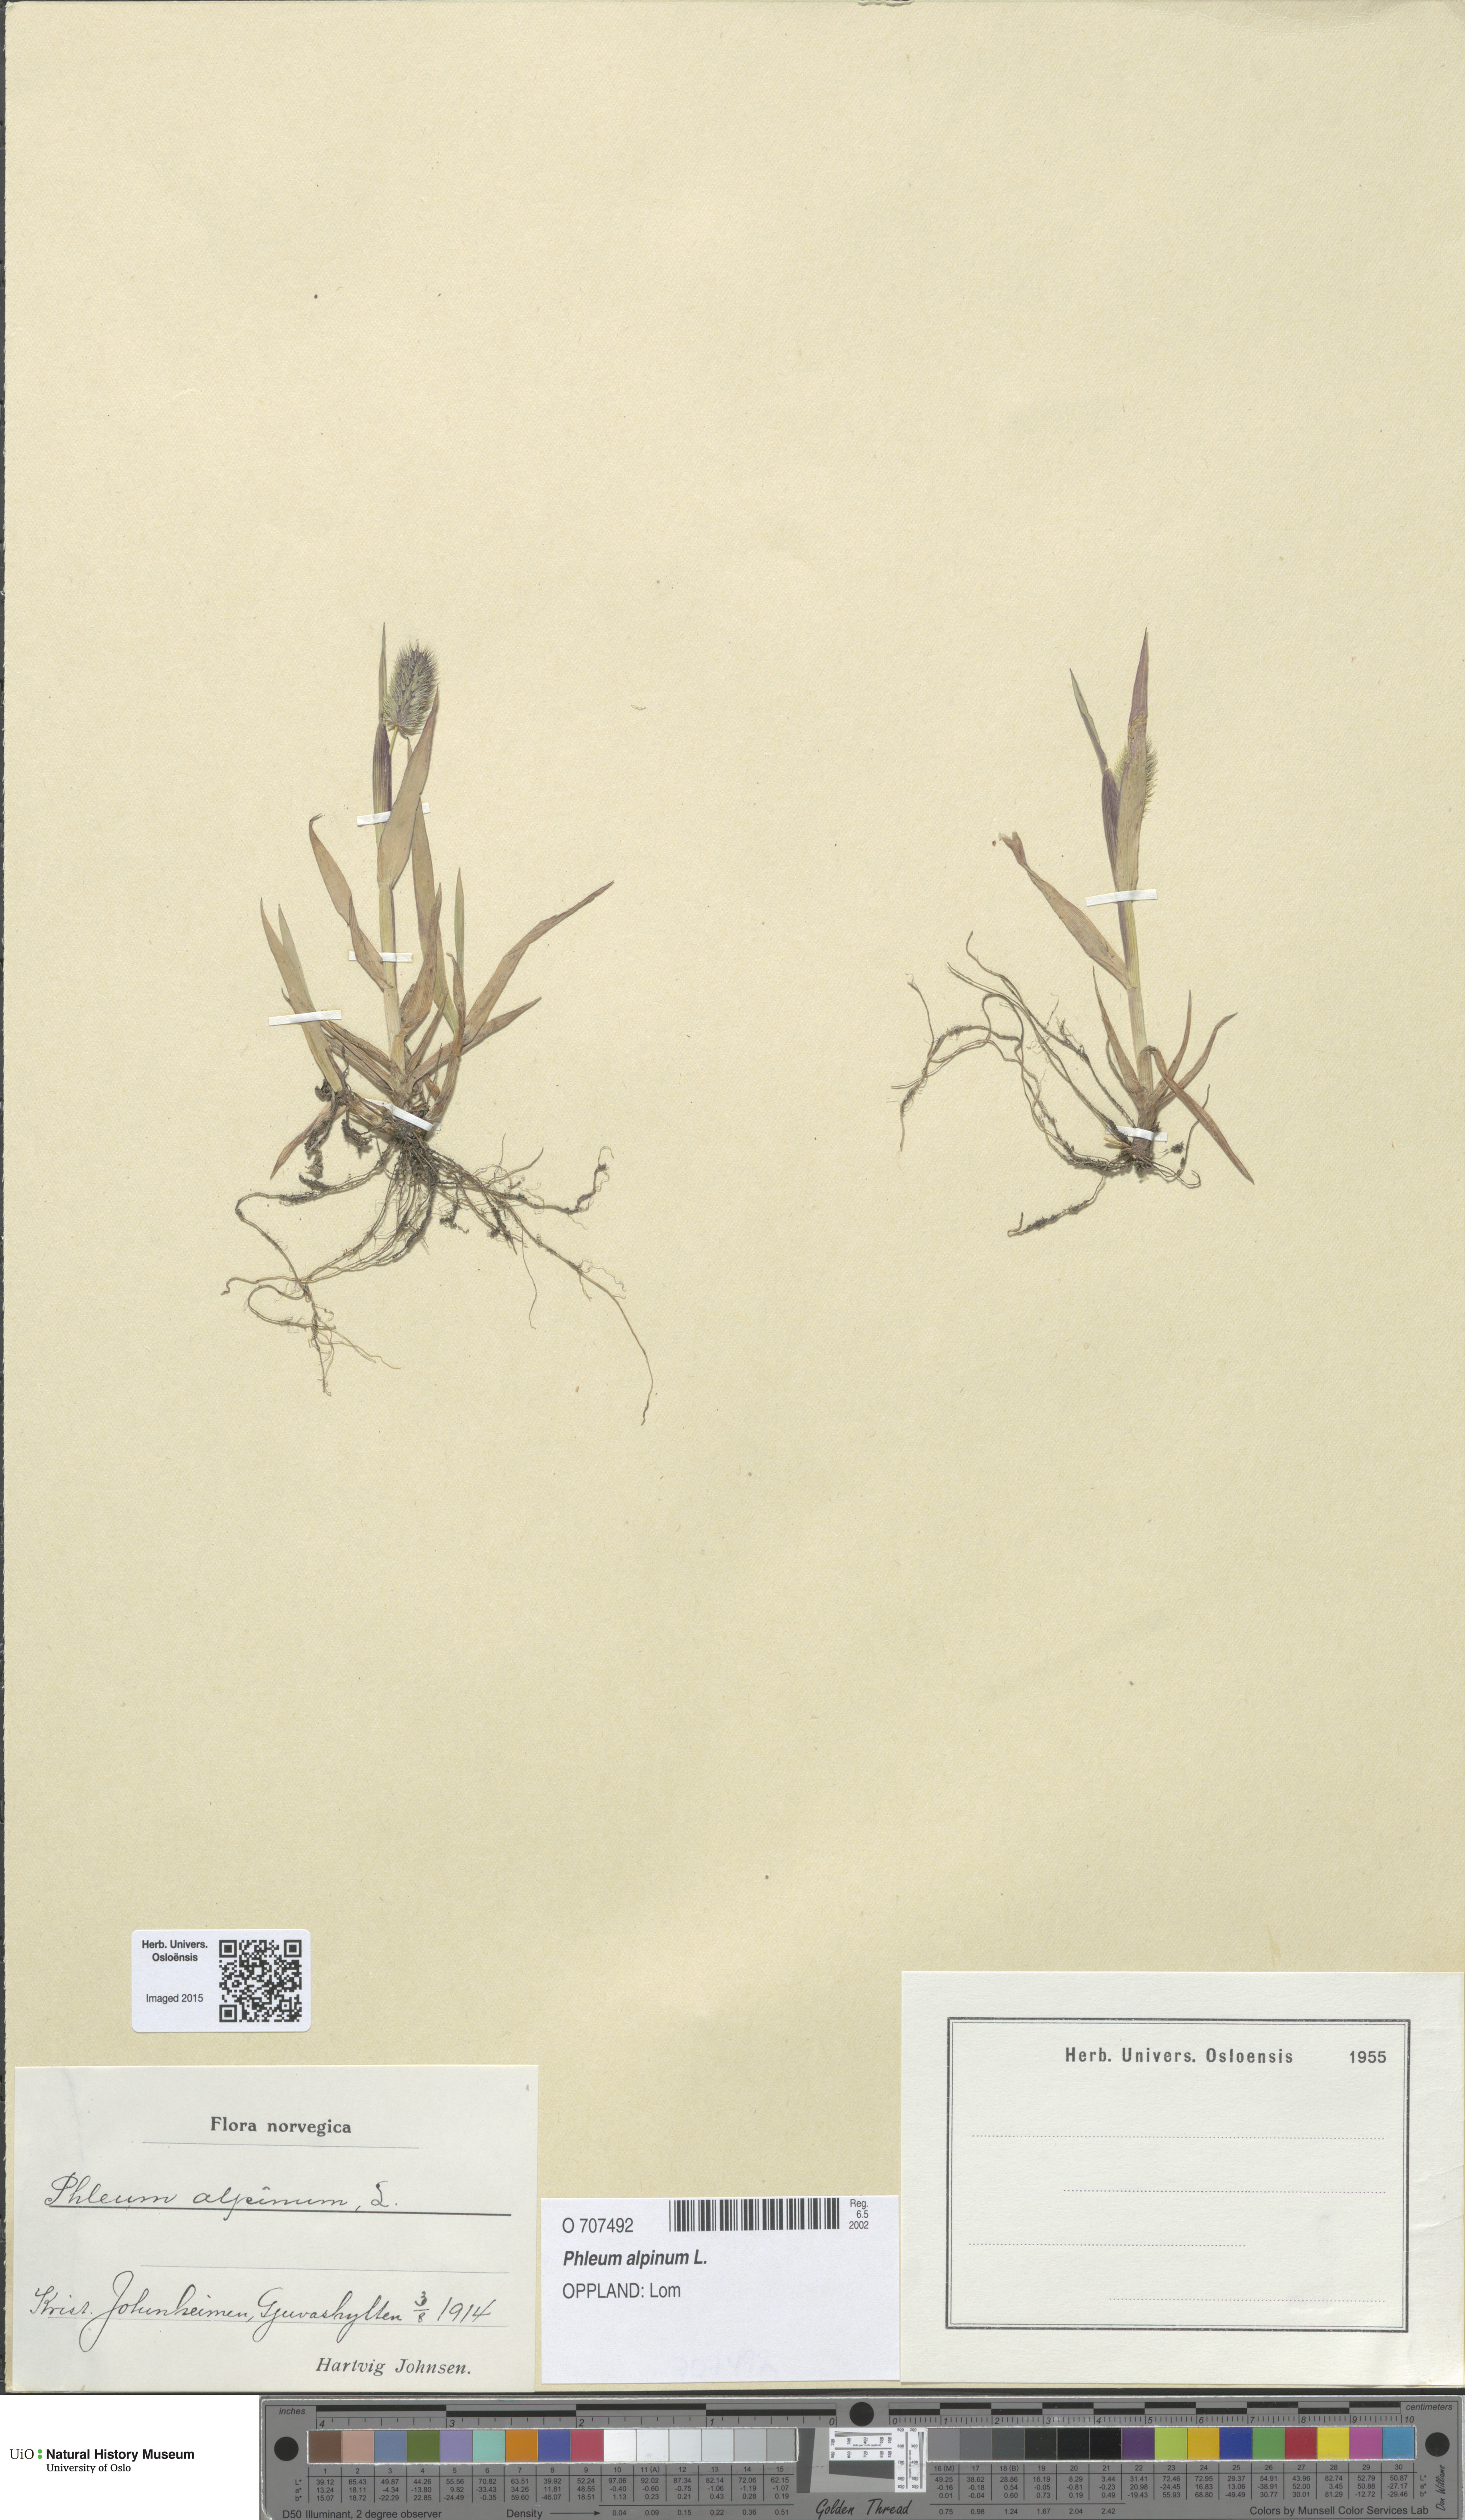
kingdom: Plantae
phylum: Tracheophyta
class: Liliopsida
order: Poales
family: Poaceae
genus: Phleum
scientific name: Phleum alpinum
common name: Alpine cat's-tail
